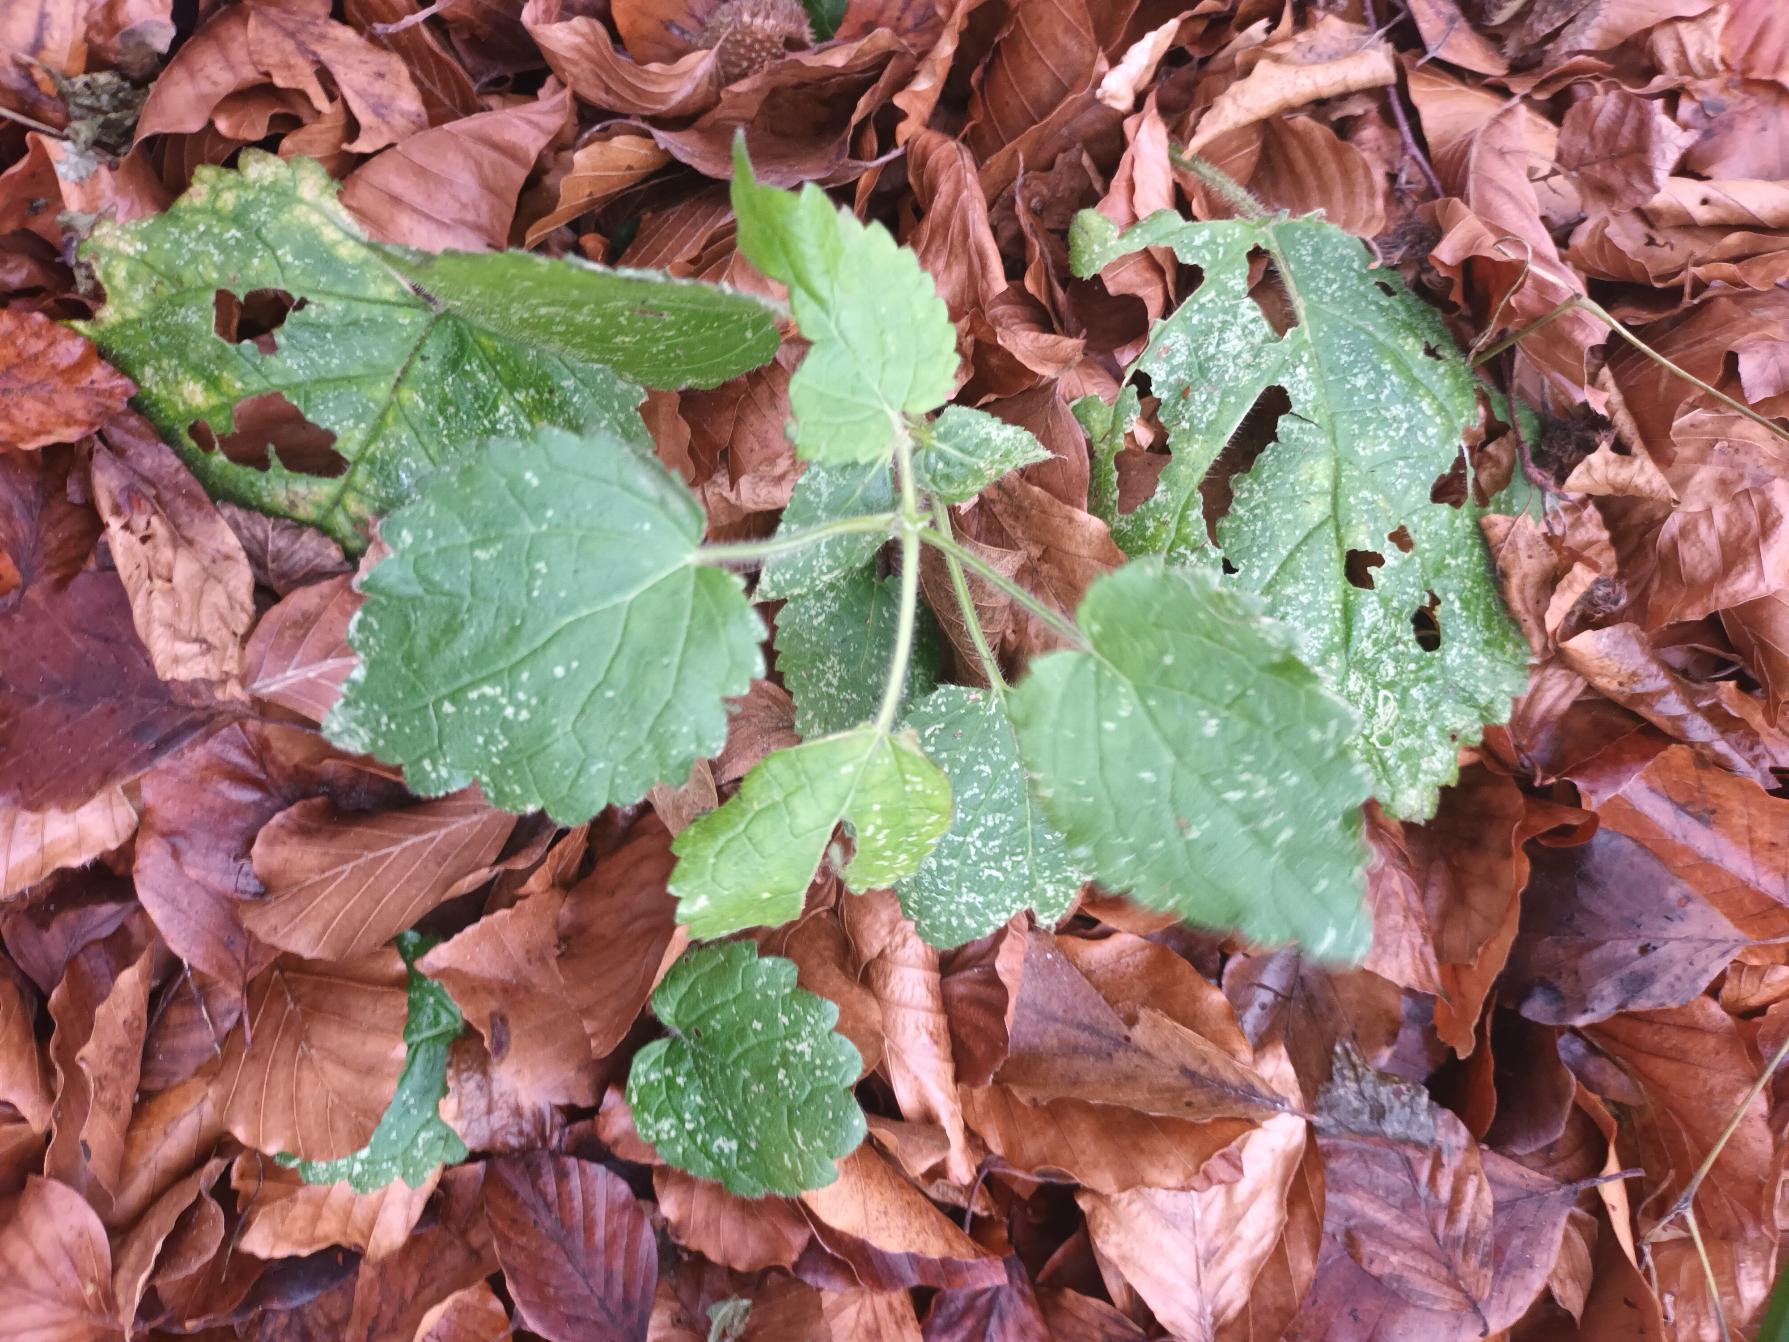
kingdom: Plantae
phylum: Tracheophyta
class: Magnoliopsida
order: Lamiales
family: Lamiaceae
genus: Stachys
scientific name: Stachys sylvatica
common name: Skov-galtetand
